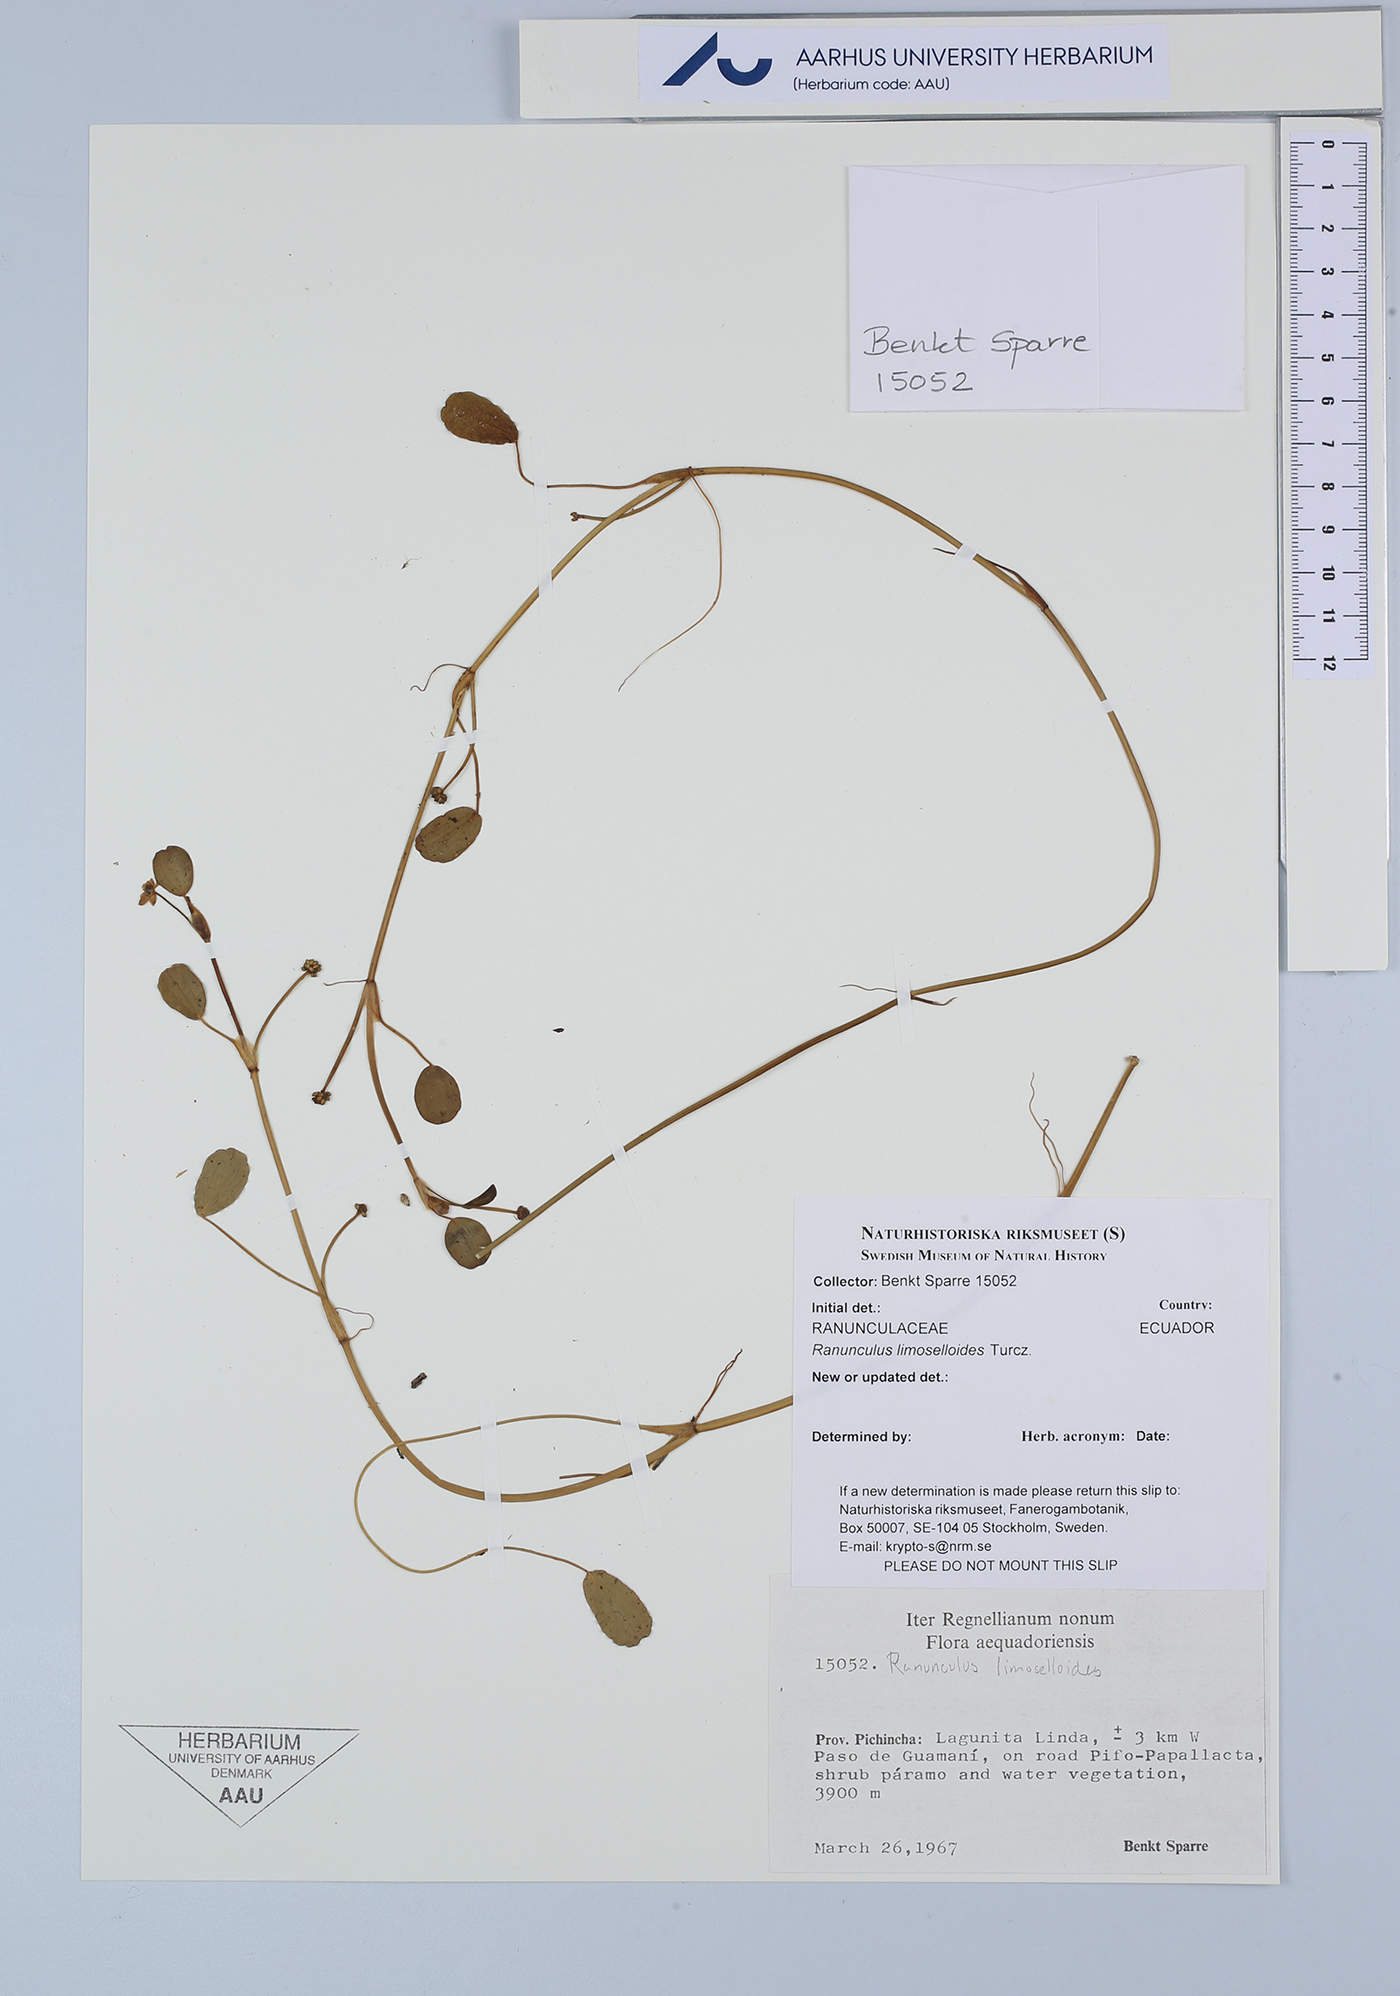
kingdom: Plantae
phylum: Tracheophyta
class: Magnoliopsida
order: Ranunculales
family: Ranunculaceae
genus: Ranunculus
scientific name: Ranunculus limoselloides
